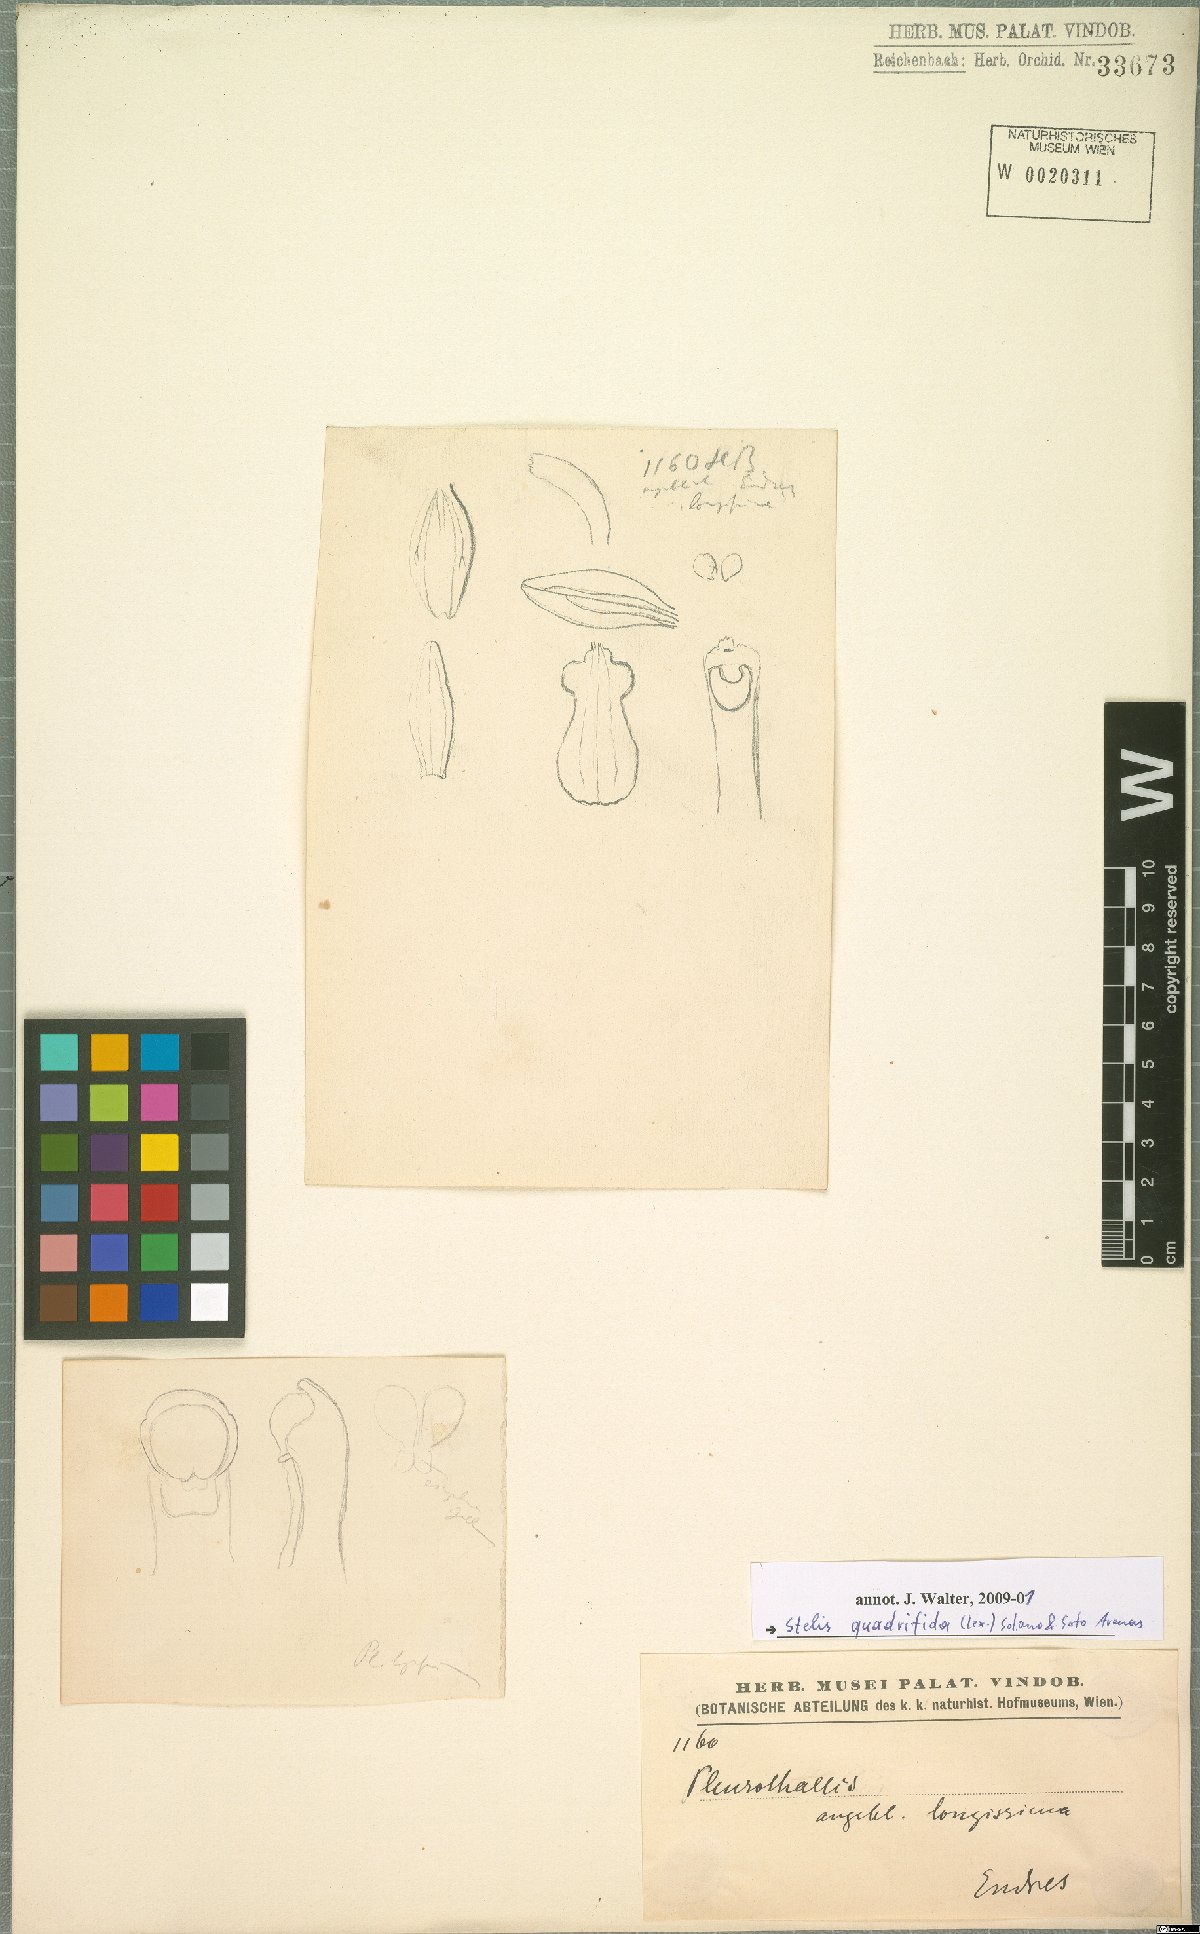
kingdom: Plantae
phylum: Tracheophyta
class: Liliopsida
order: Asparagales
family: Orchidaceae
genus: Pleurothallis
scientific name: Pleurothallis quadrifida
